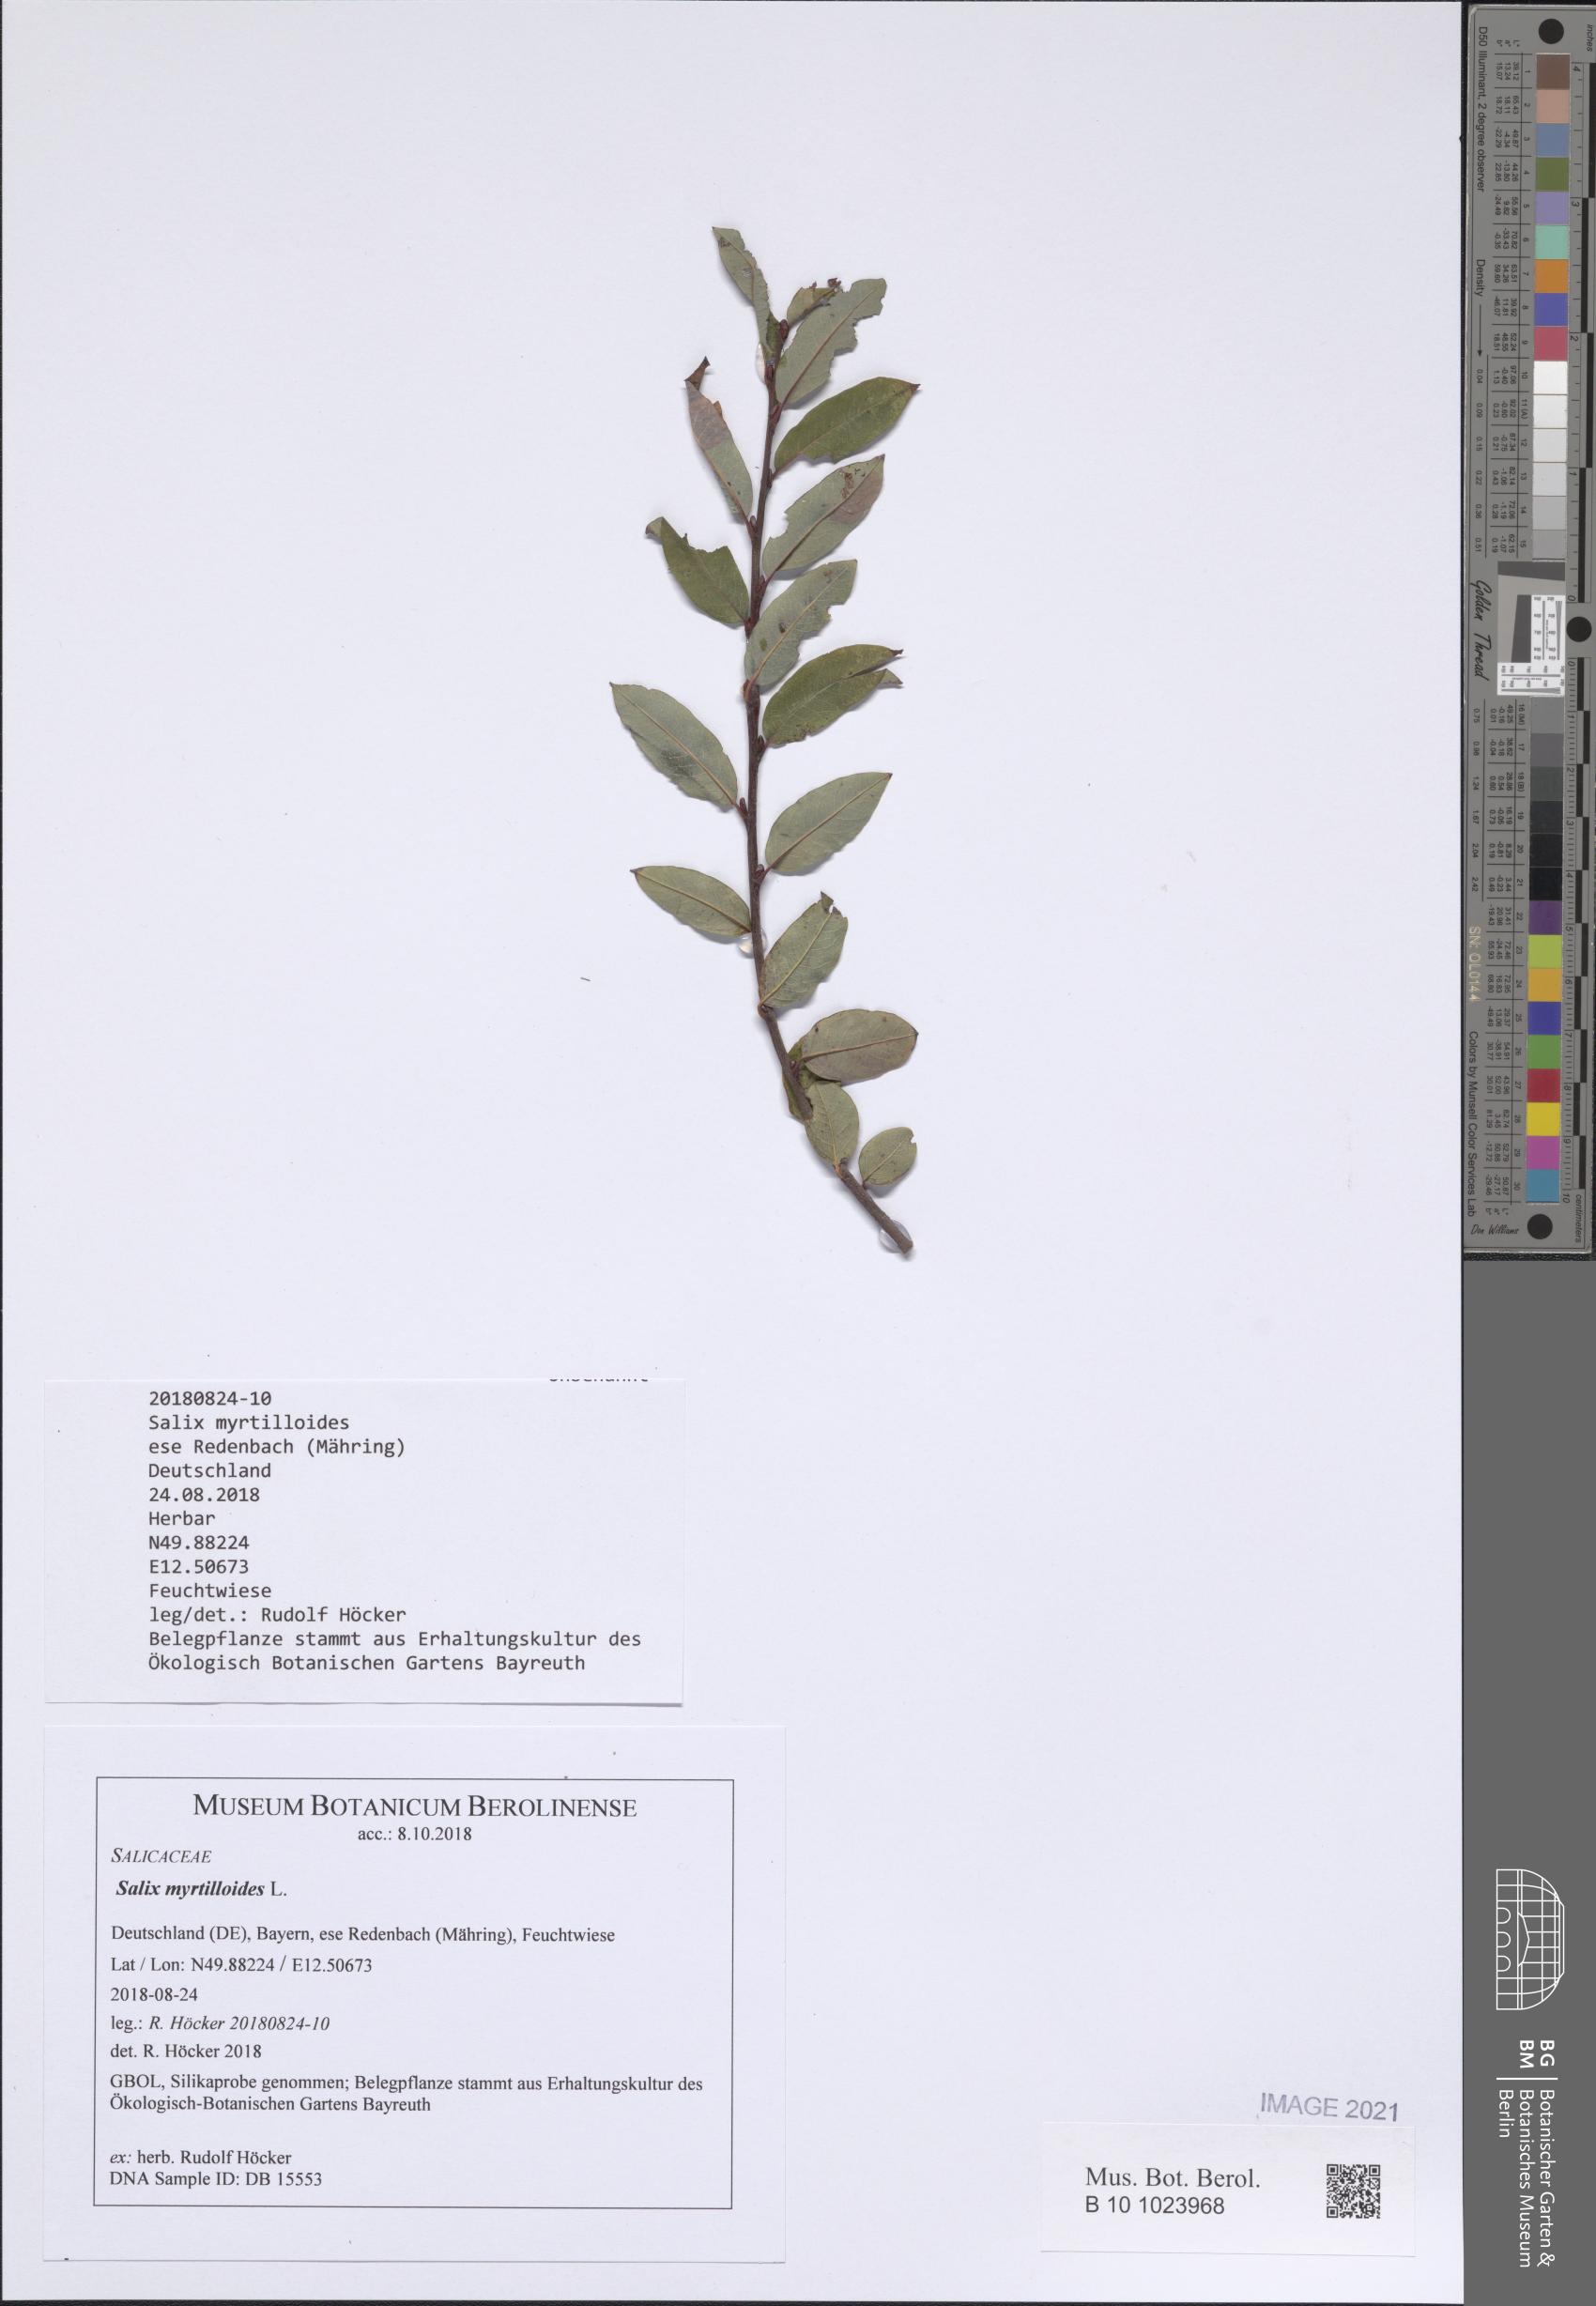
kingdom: Plantae
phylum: Tracheophyta
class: Magnoliopsida
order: Malpighiales
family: Salicaceae
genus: Salix
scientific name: Salix myrtilloides
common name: Myrtle-leaved willow
